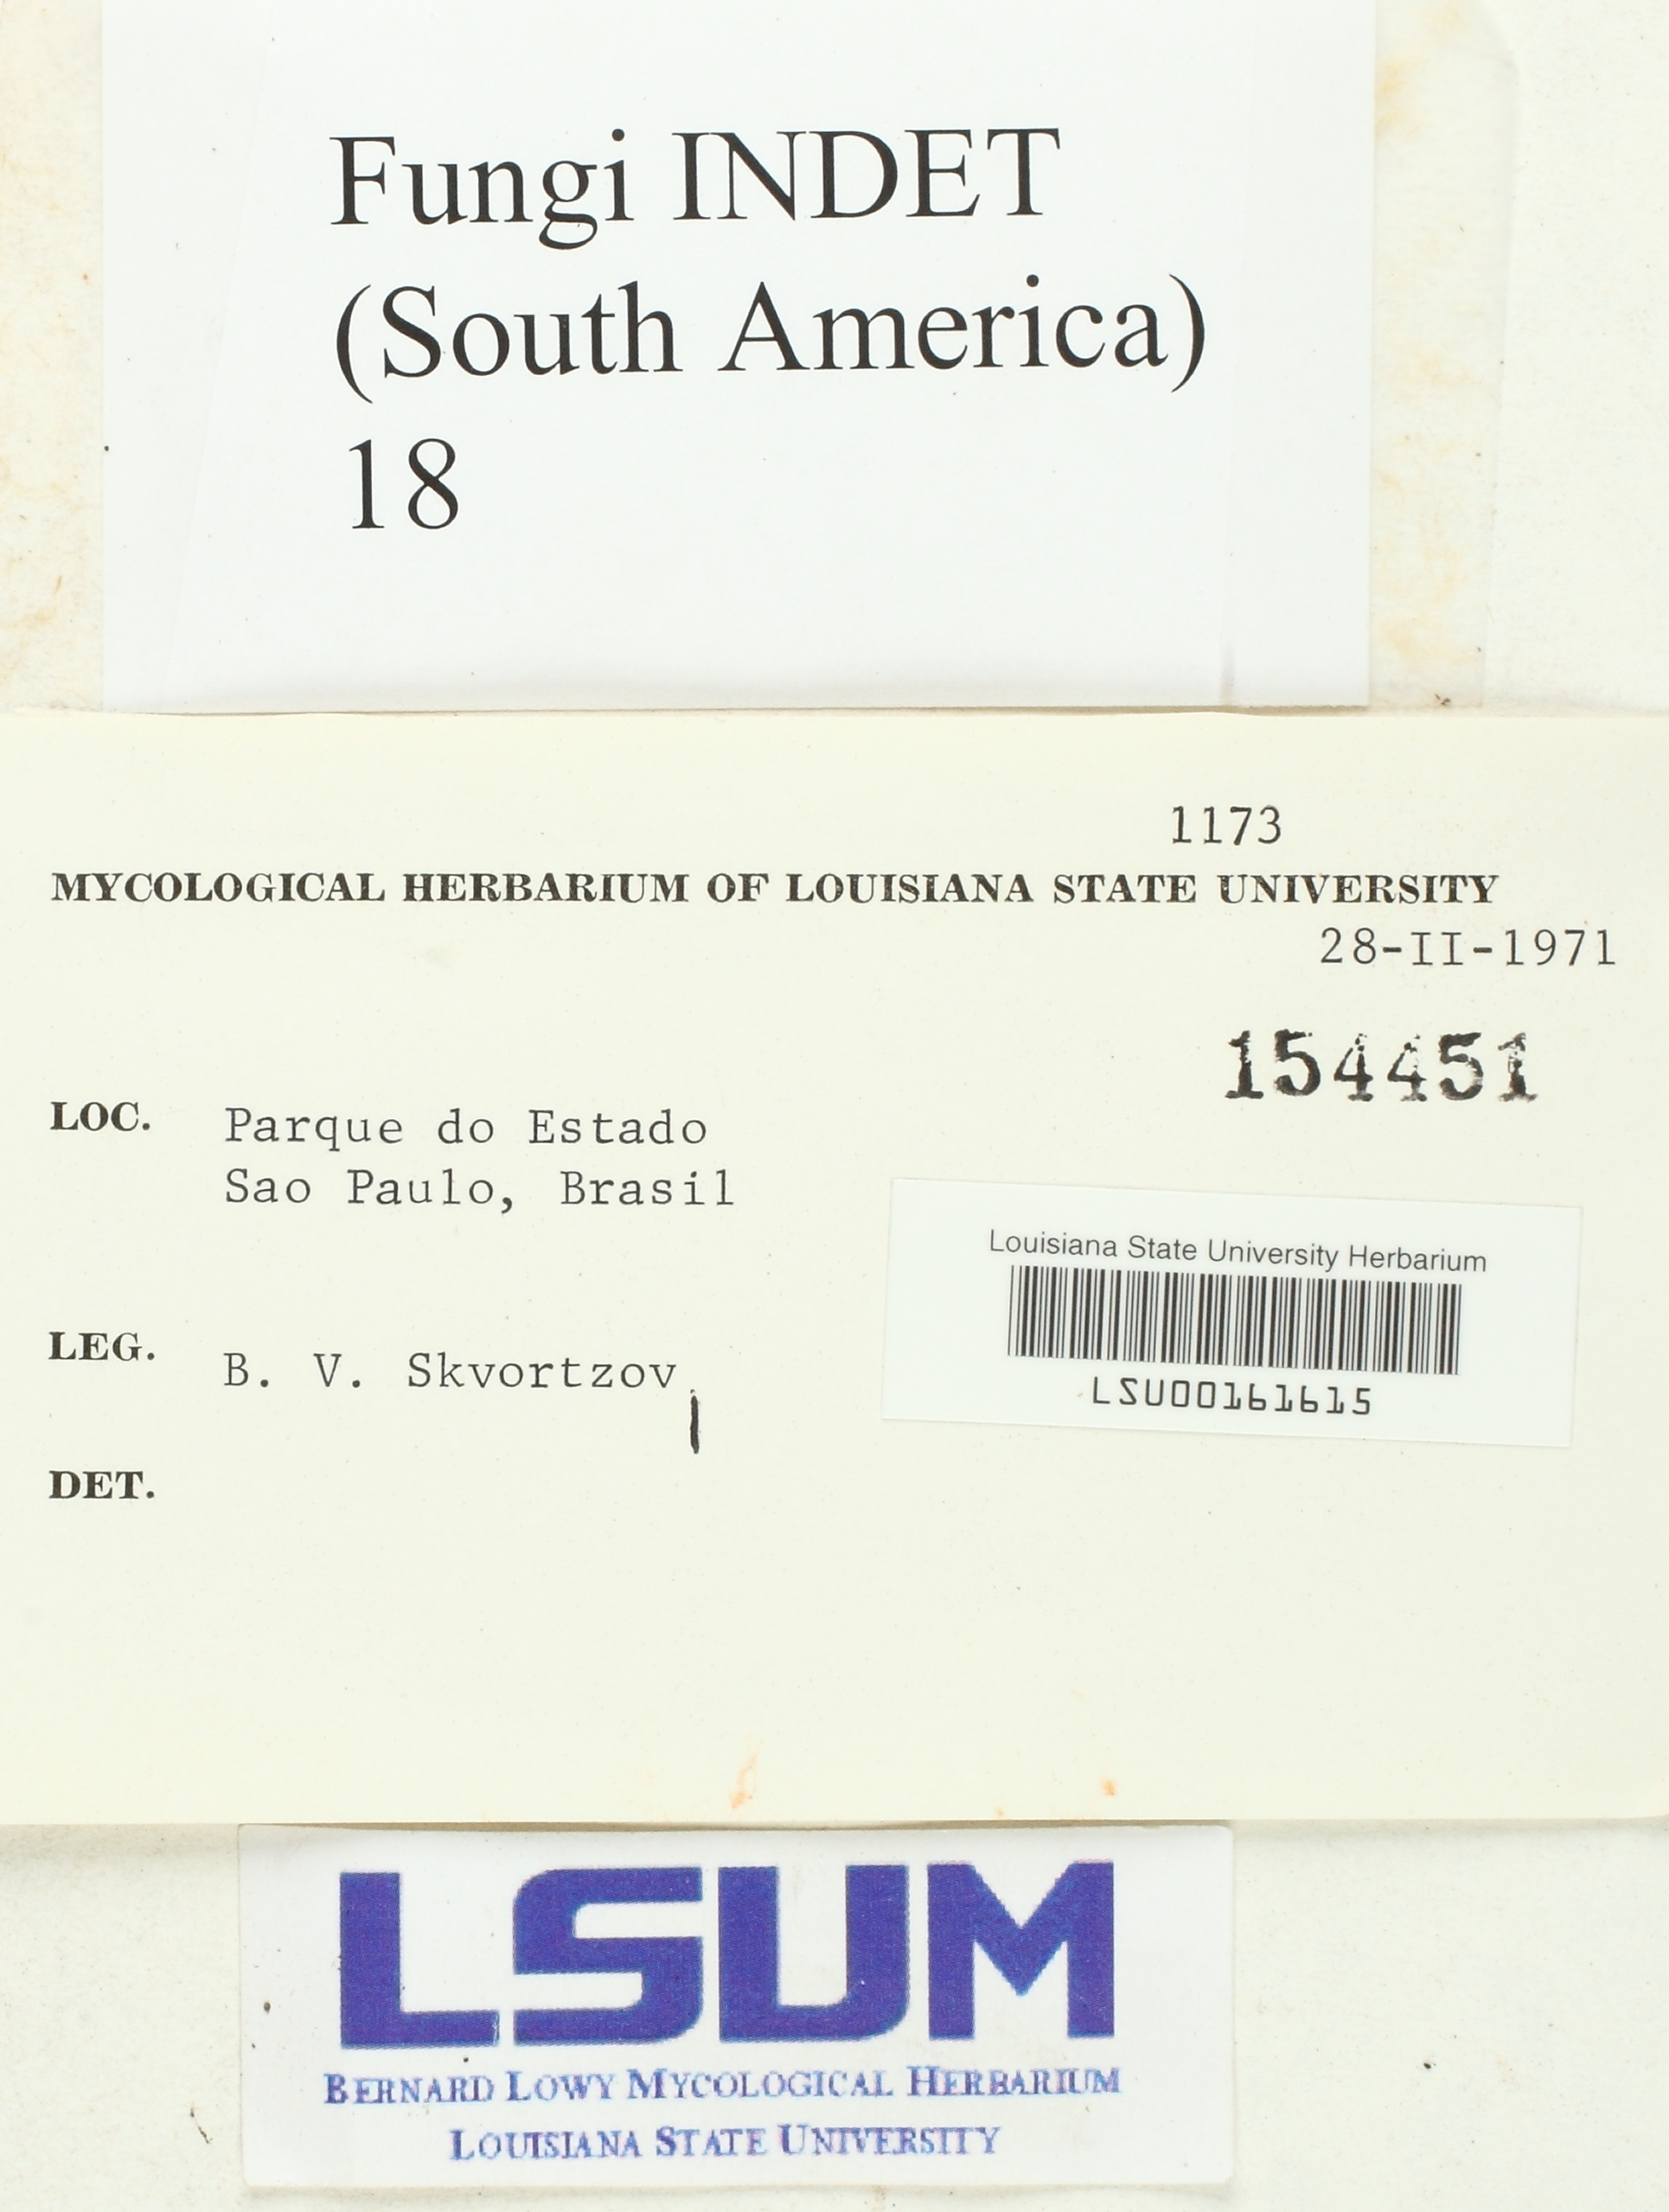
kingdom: Fungi
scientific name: Fungi
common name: Fungi
